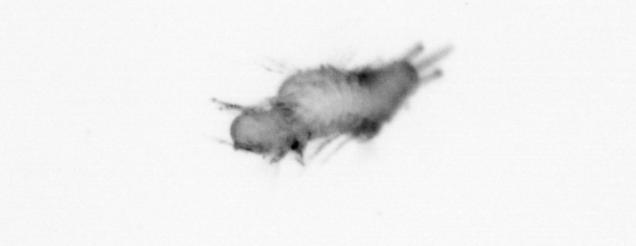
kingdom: Animalia
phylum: Annelida
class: Polychaeta
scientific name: Polychaeta
